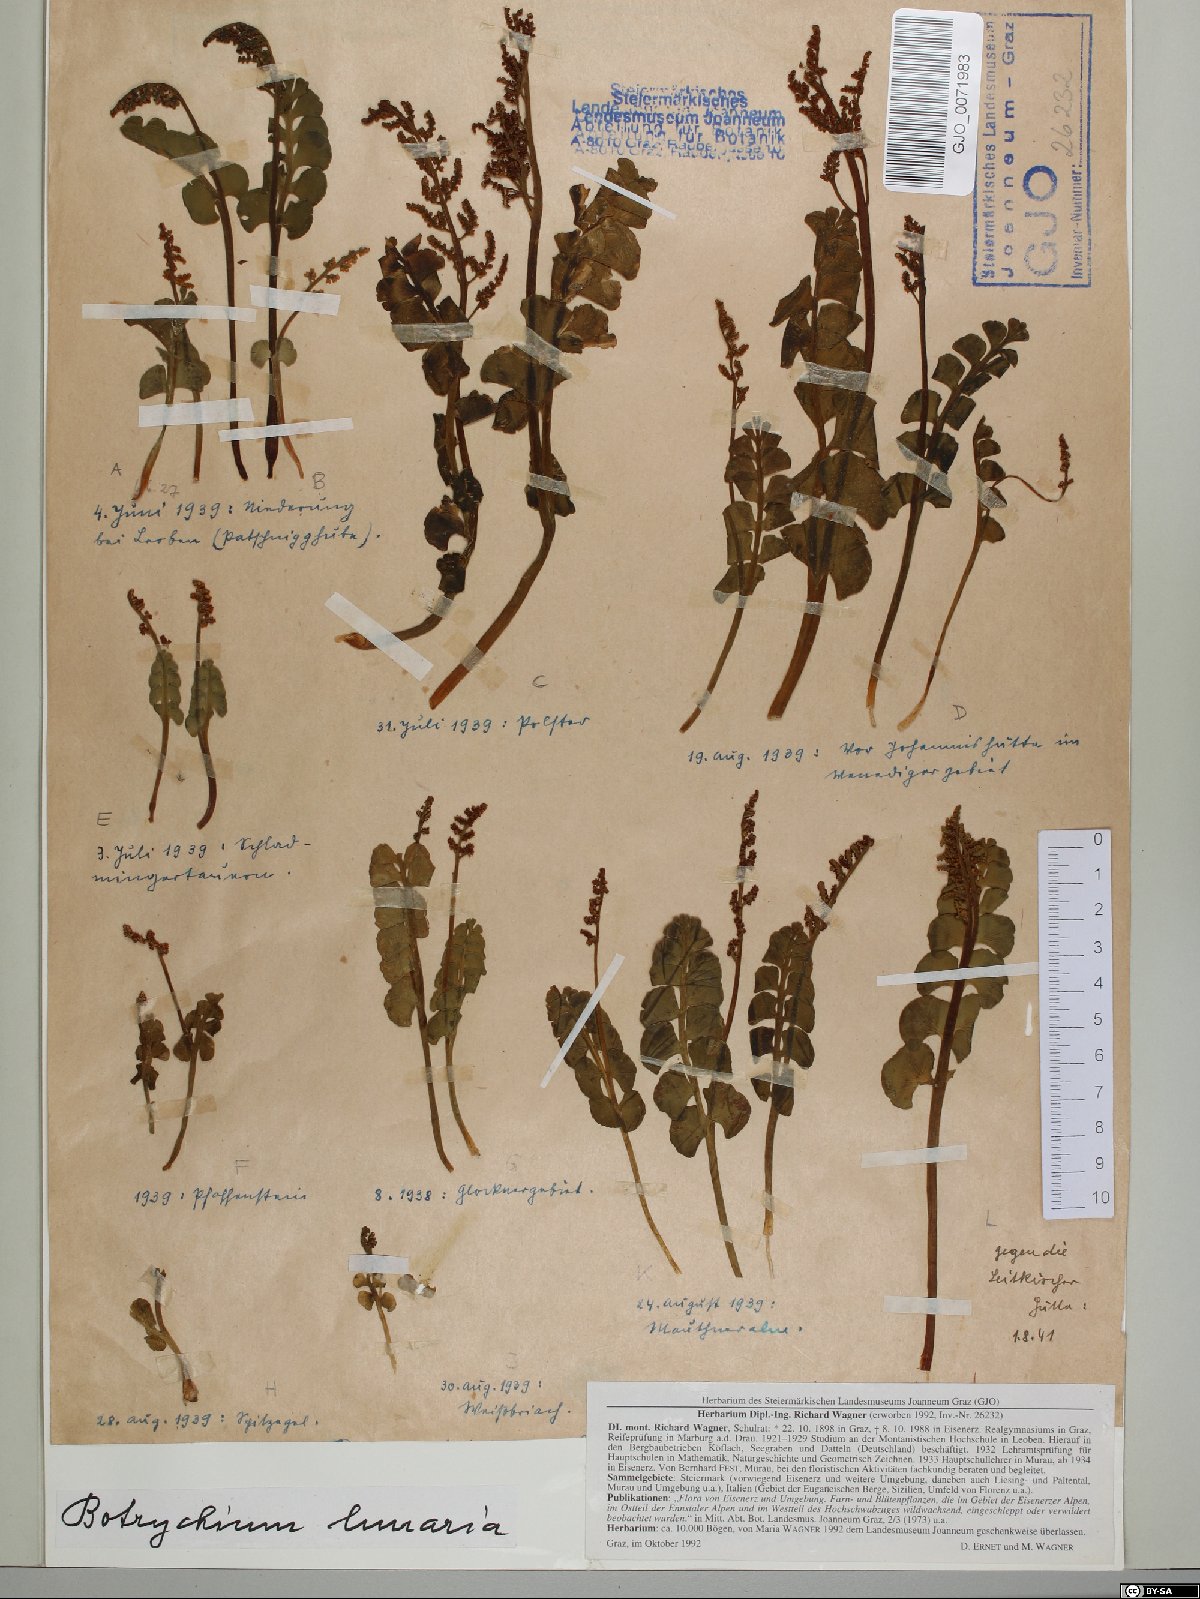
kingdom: Plantae
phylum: Tracheophyta
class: Polypodiopsida
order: Ophioglossales
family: Ophioglossaceae
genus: Botrychium
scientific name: Botrychium lunaria
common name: Moonwort
